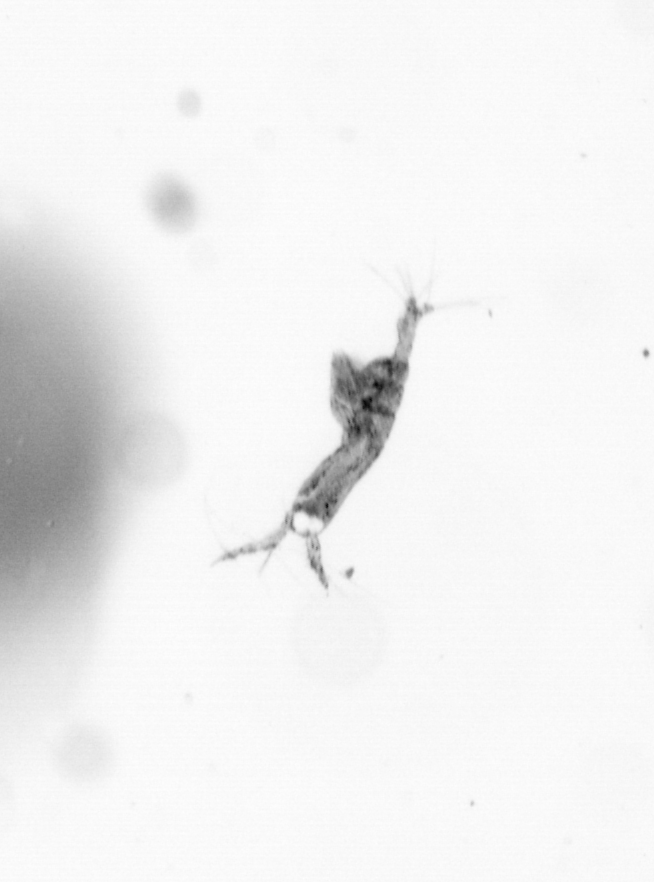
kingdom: Animalia
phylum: Arthropoda
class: Copepoda
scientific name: Copepoda
